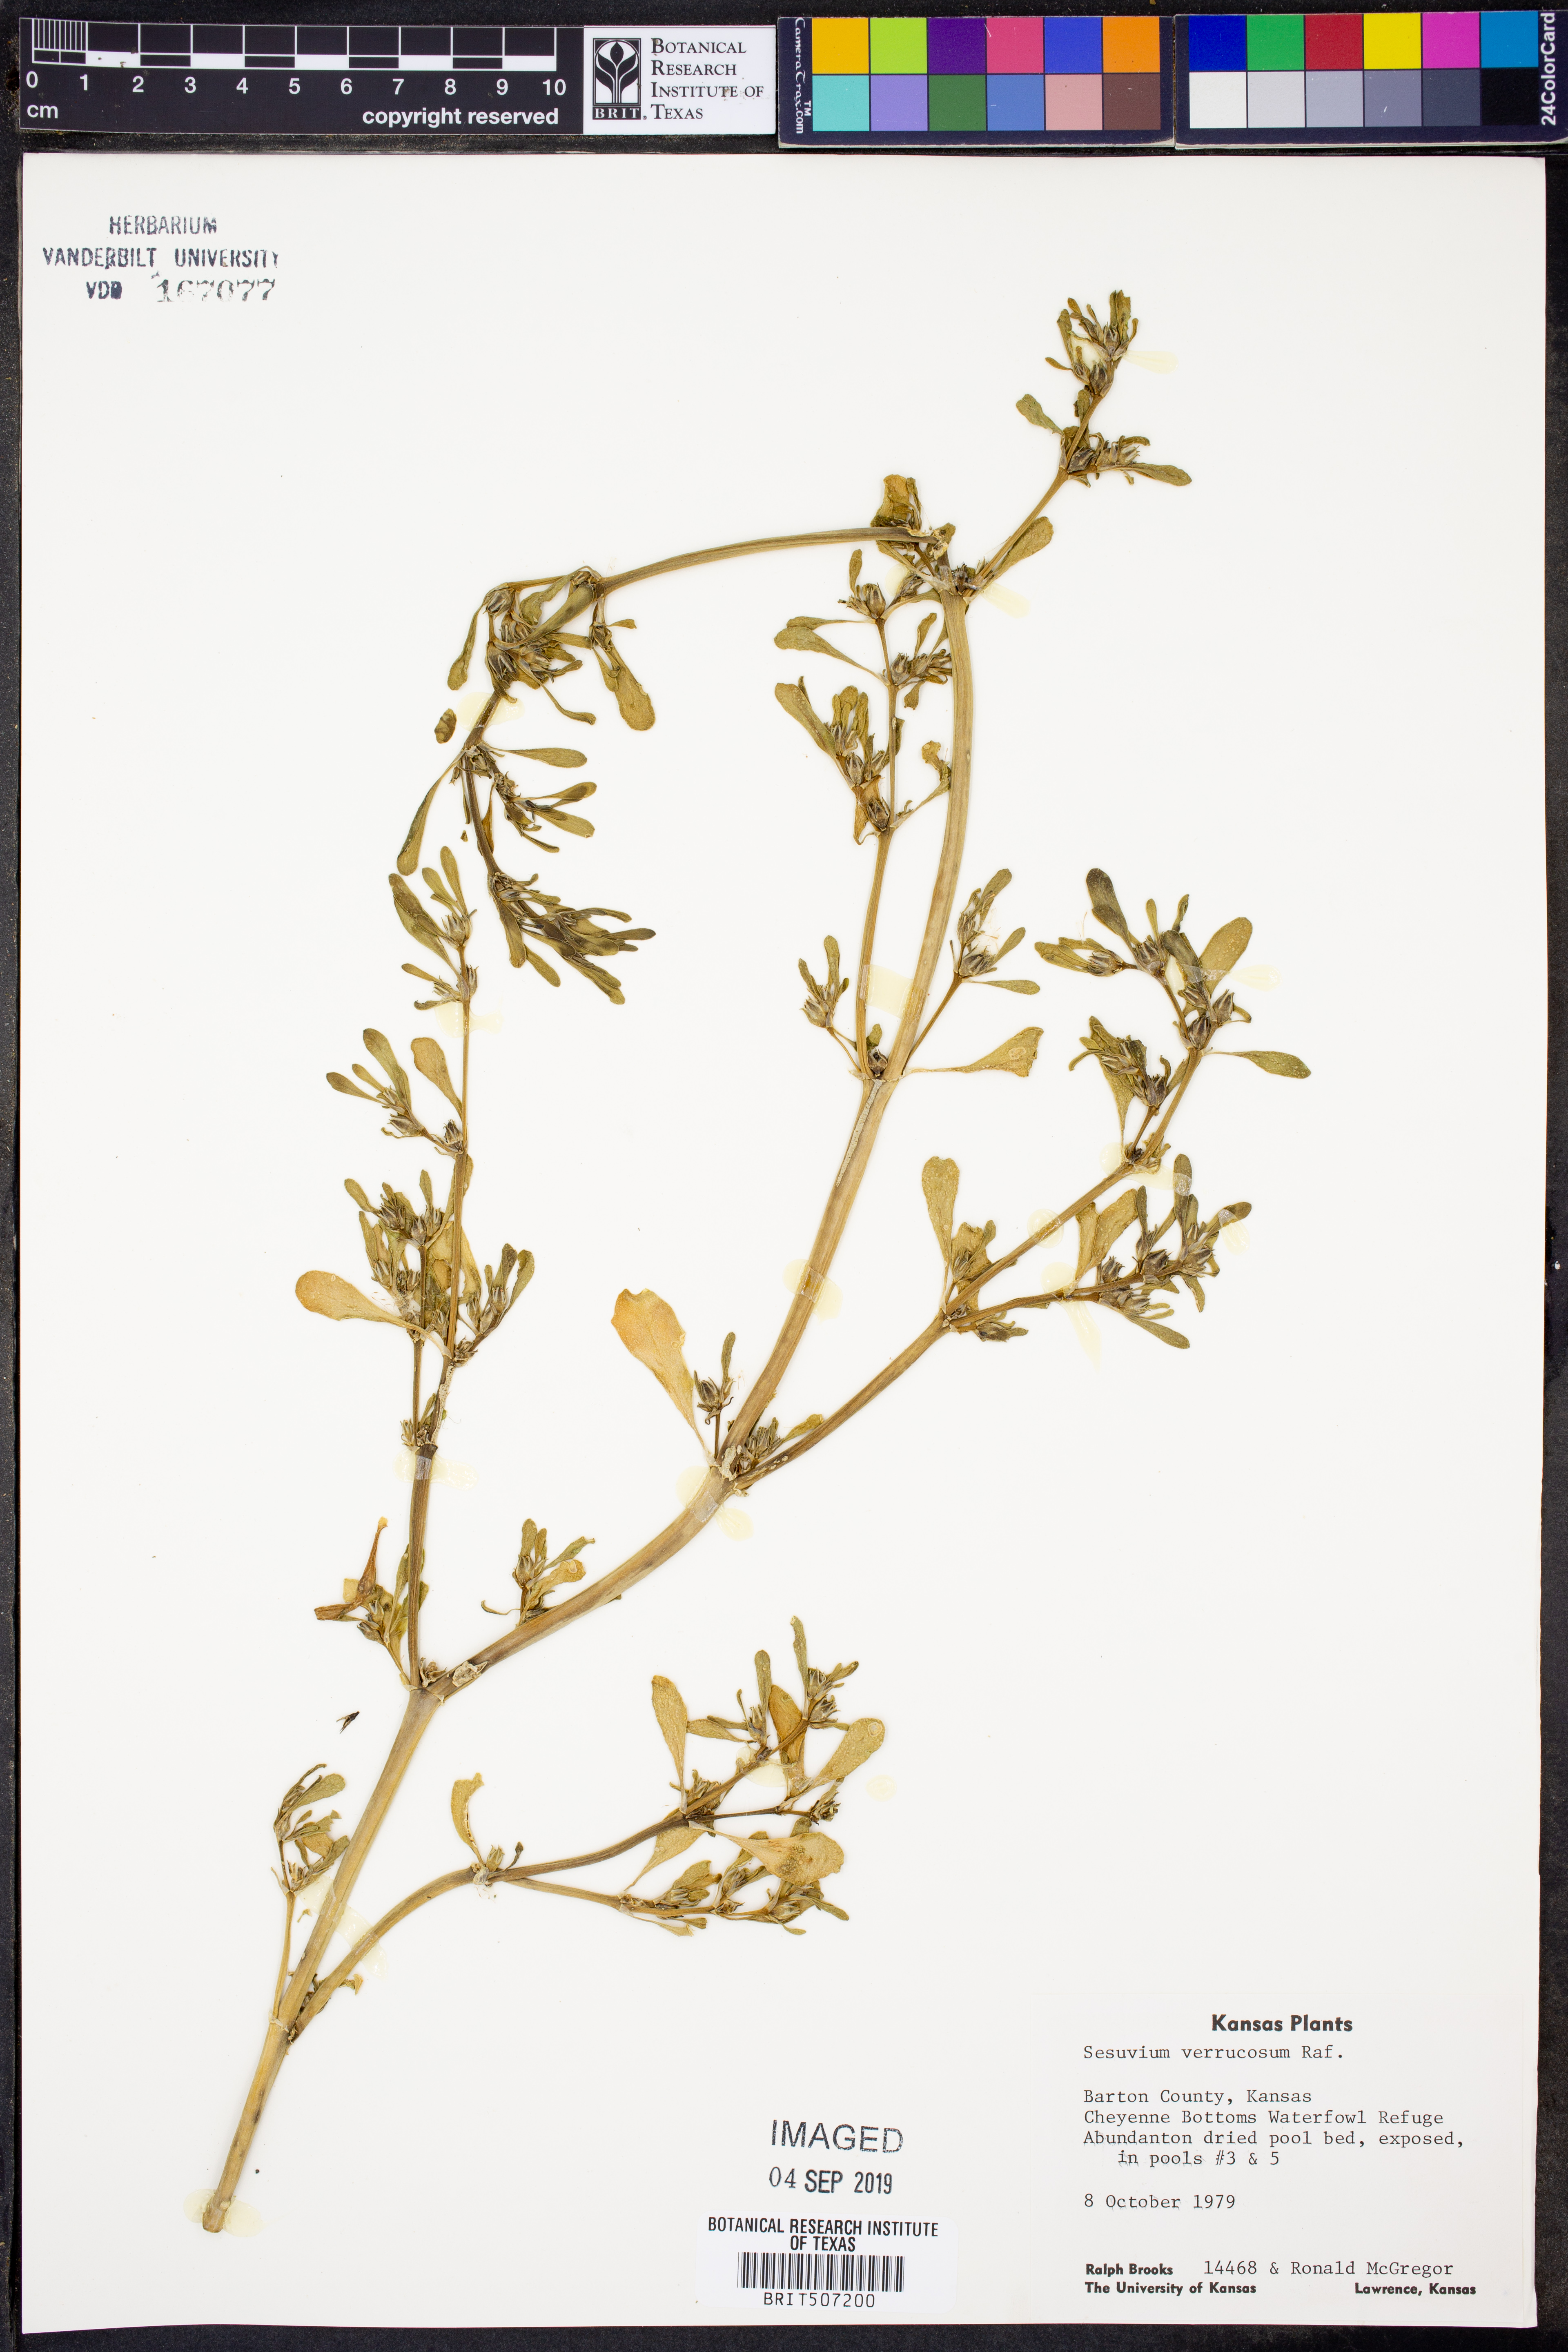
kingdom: Plantae
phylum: Tracheophyta
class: Magnoliopsida
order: Caryophyllales
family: Aizoaceae
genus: Sesuvium
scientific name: Sesuvium revolutifolium
